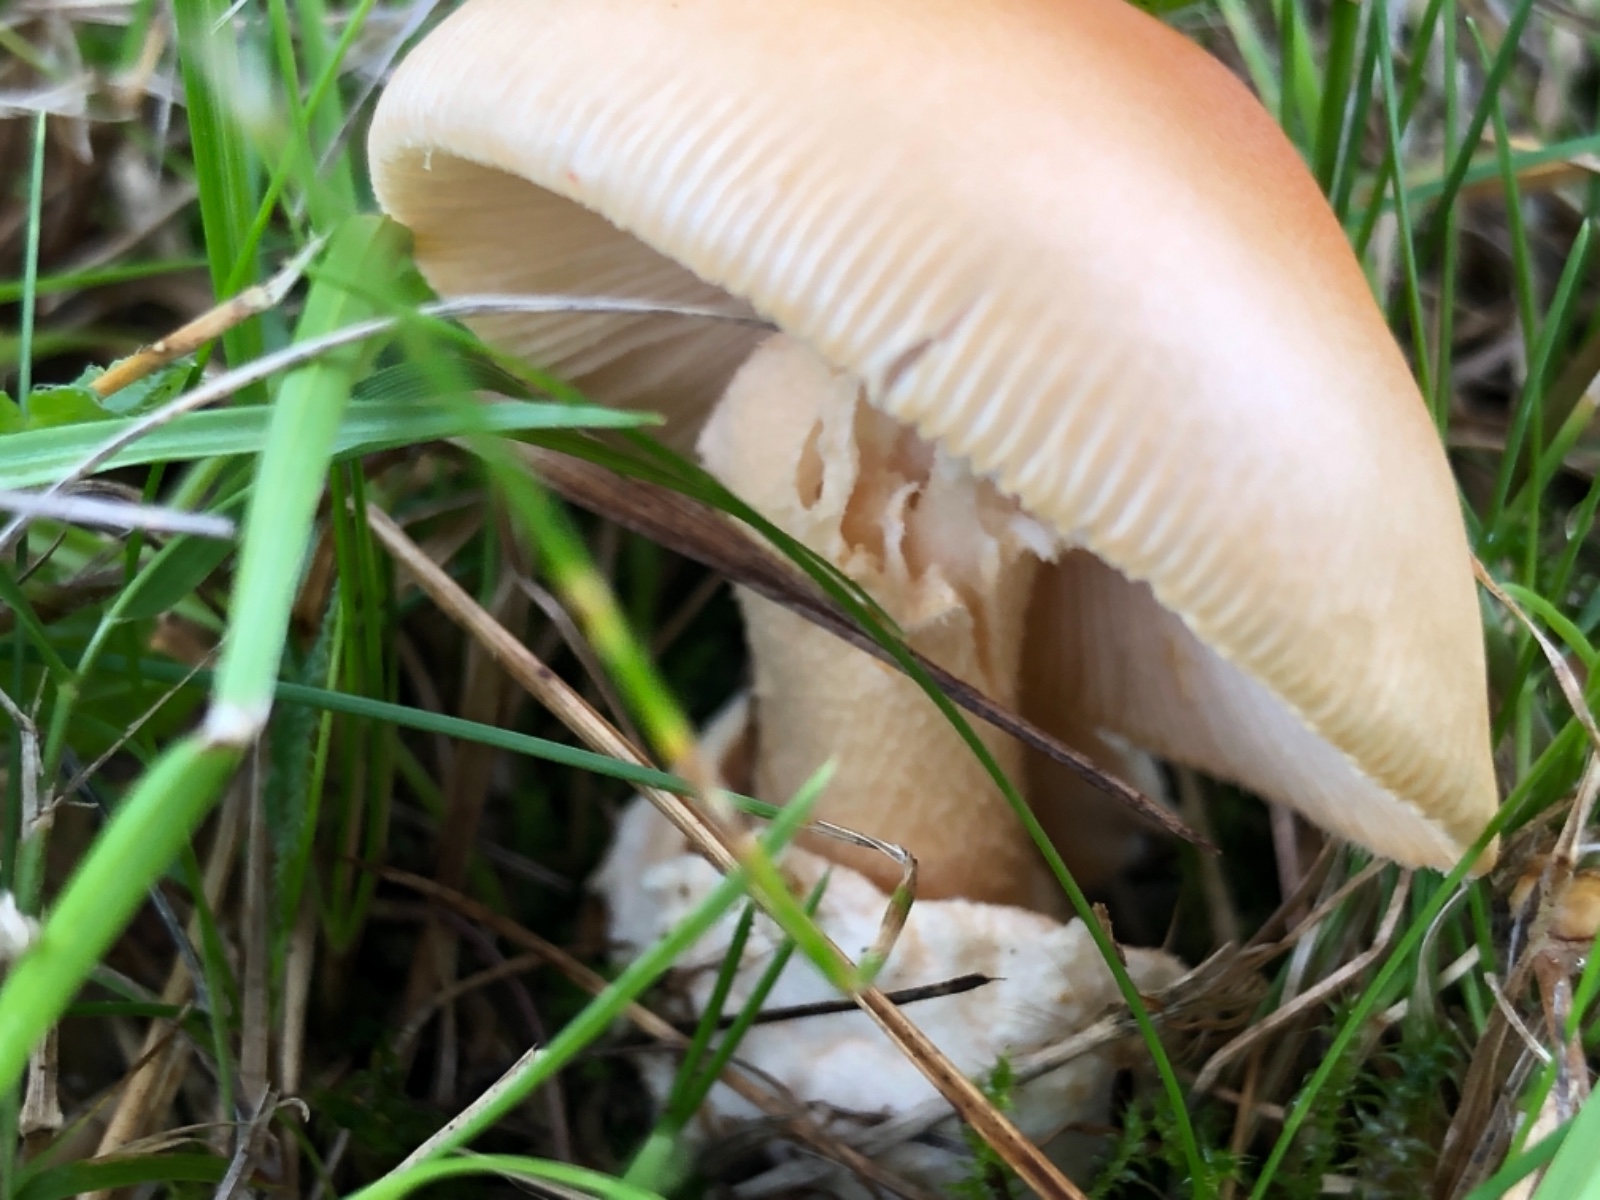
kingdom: Fungi
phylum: Basidiomycota
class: Agaricomycetes
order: Agaricales
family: Amanitaceae
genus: Amanita
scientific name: Amanita crocea
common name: gylden kam-fluesvamp
